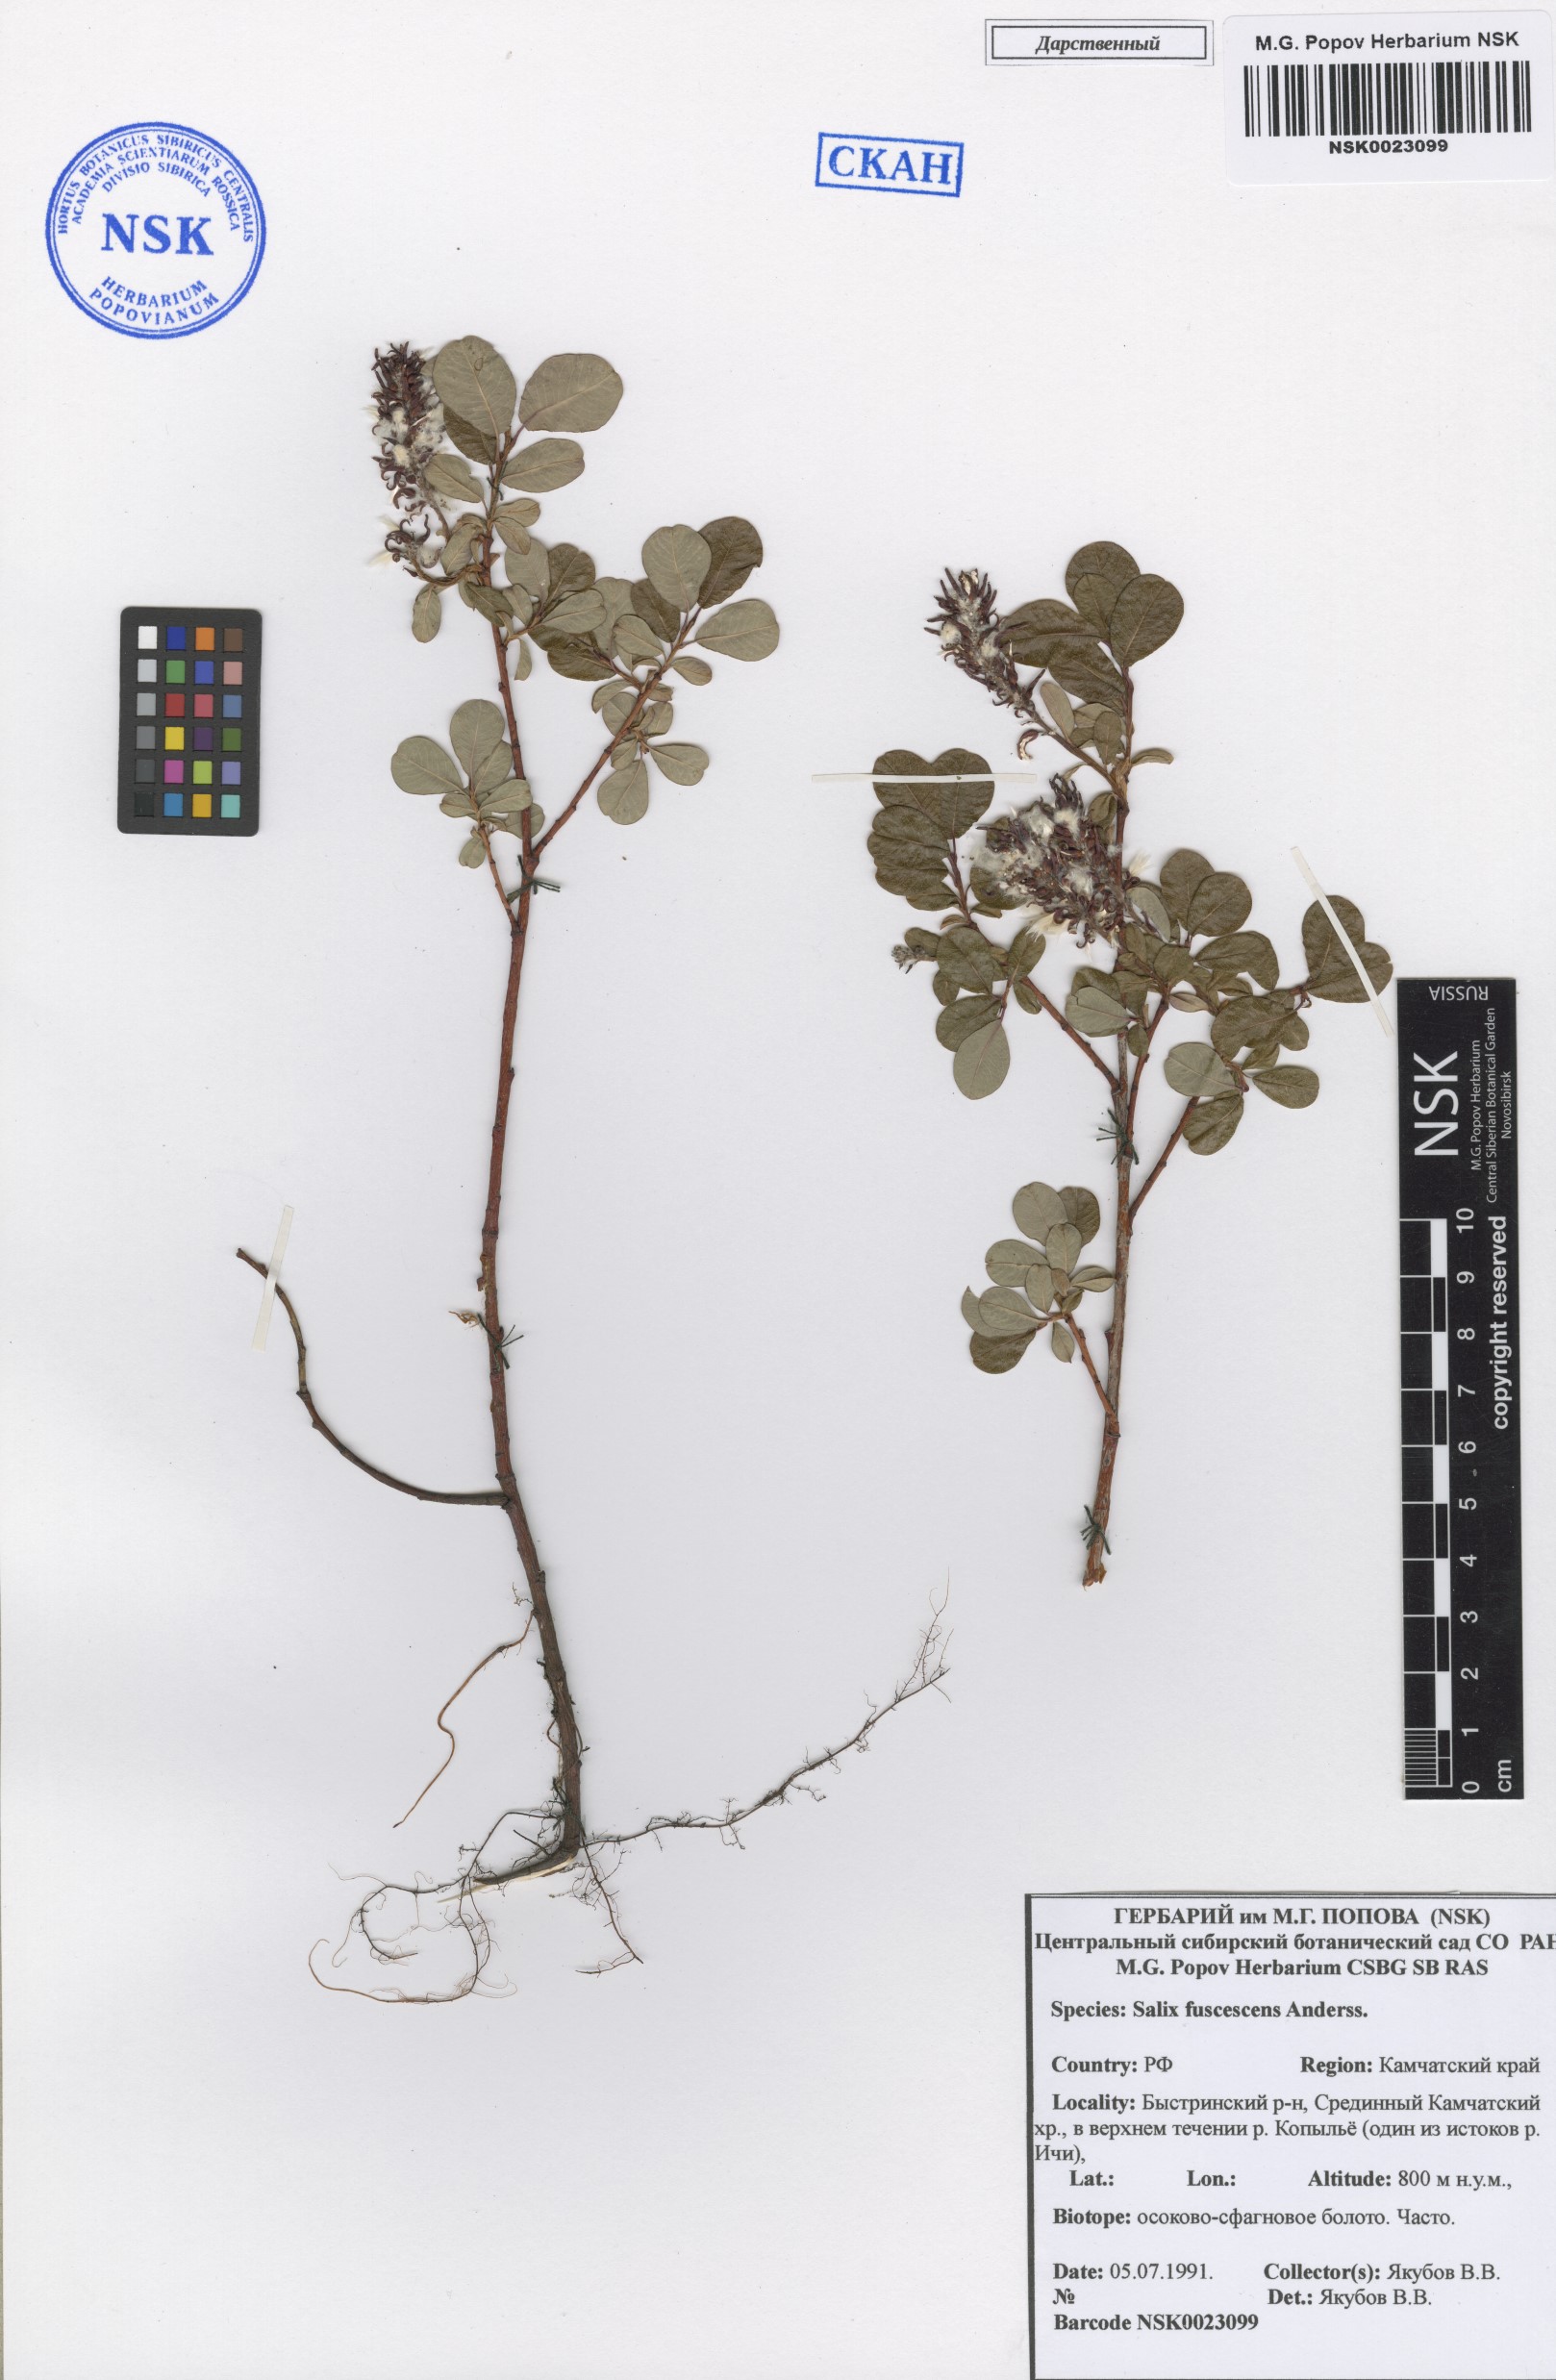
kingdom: Plantae
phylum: Tracheophyta
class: Magnoliopsida
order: Malpighiales
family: Salicaceae
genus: Salix
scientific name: Salix fuscescens
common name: Brownish willow
